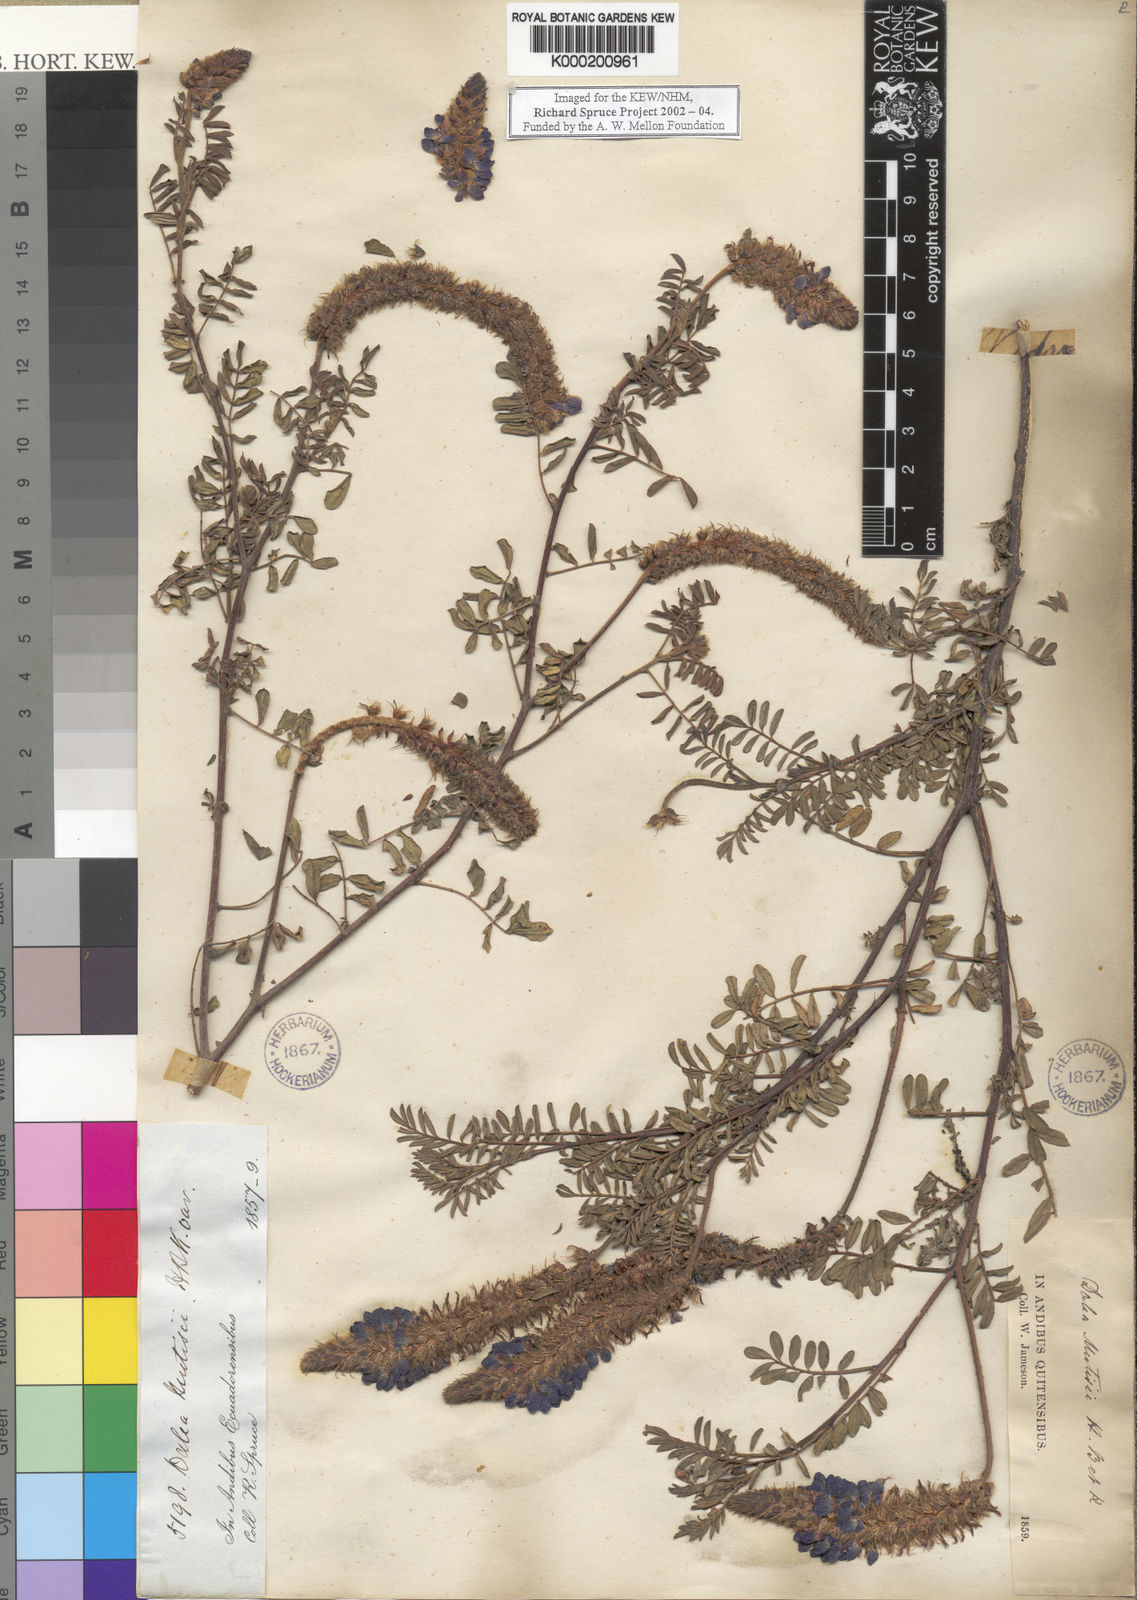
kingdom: Plantae
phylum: Tracheophyta
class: Magnoliopsida
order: Fabales
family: Fabaceae
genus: Dalea
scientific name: Dalea coerulea
